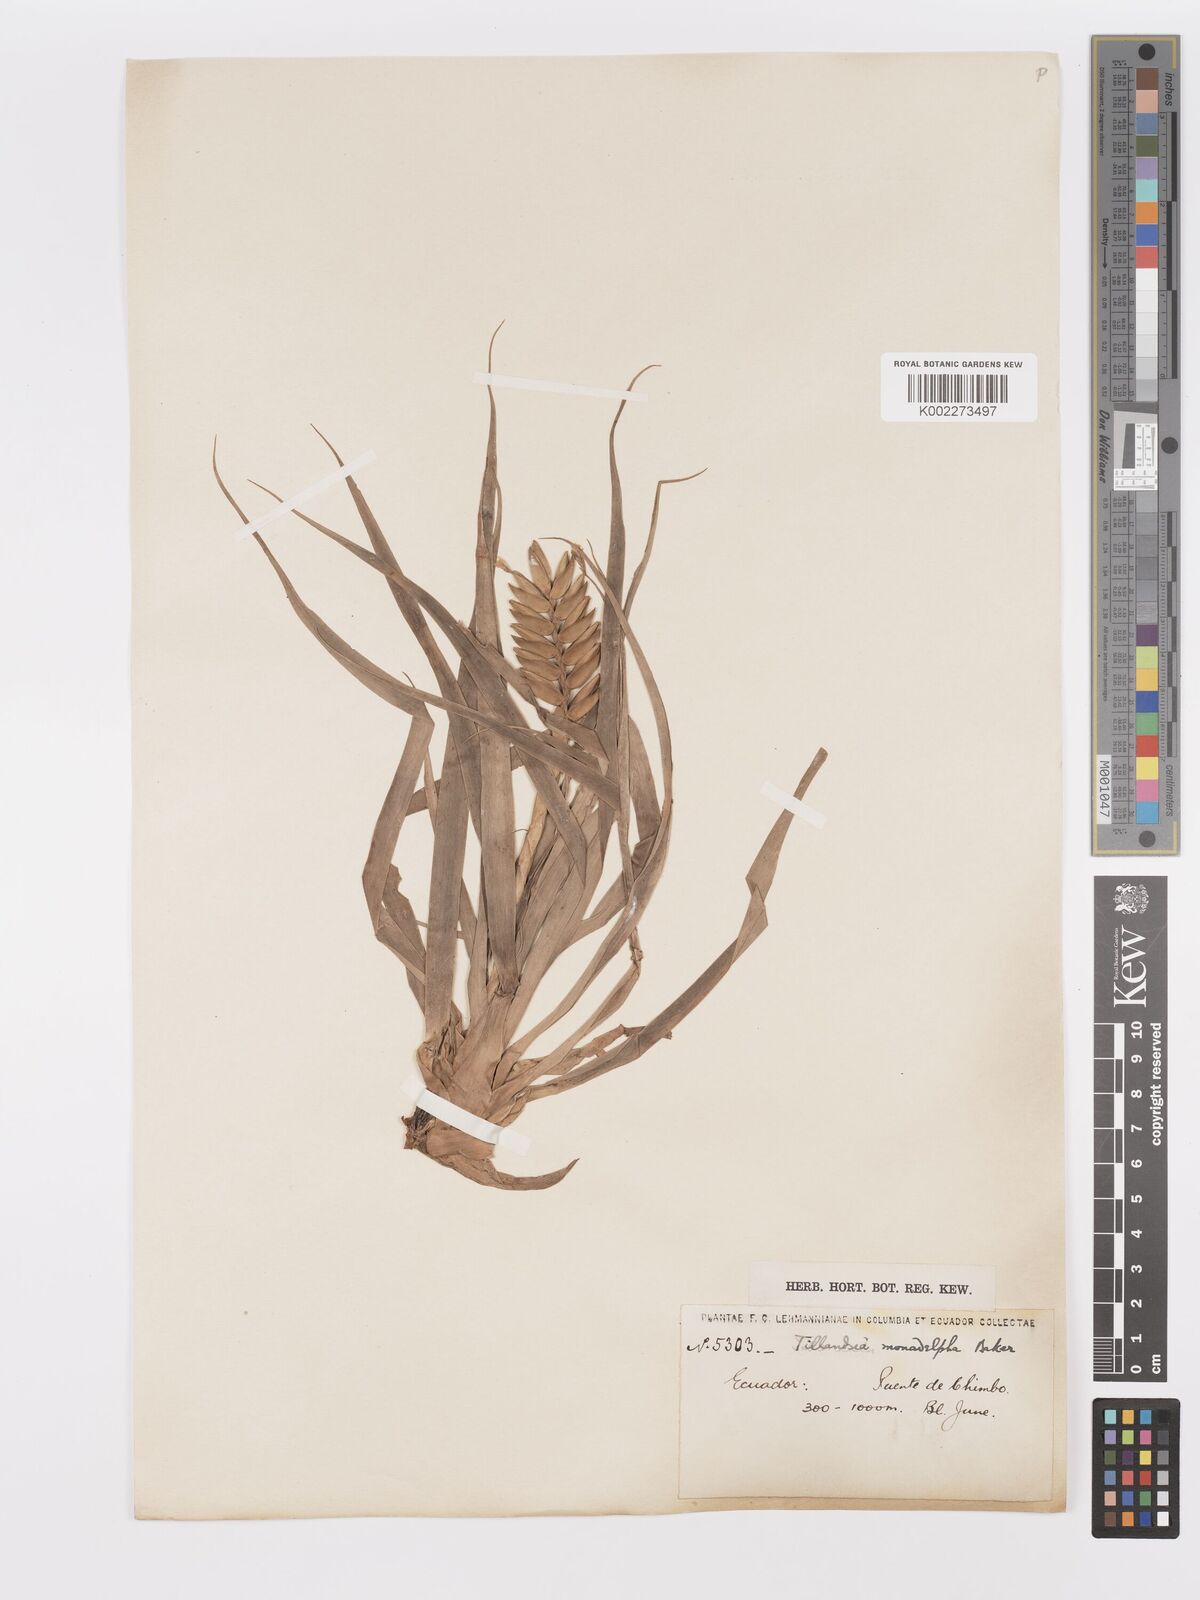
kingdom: Plantae
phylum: Tracheophyta
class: Liliopsida
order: Poales
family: Bromeliaceae
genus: Lemeltonia
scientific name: Lemeltonia monadelpha
